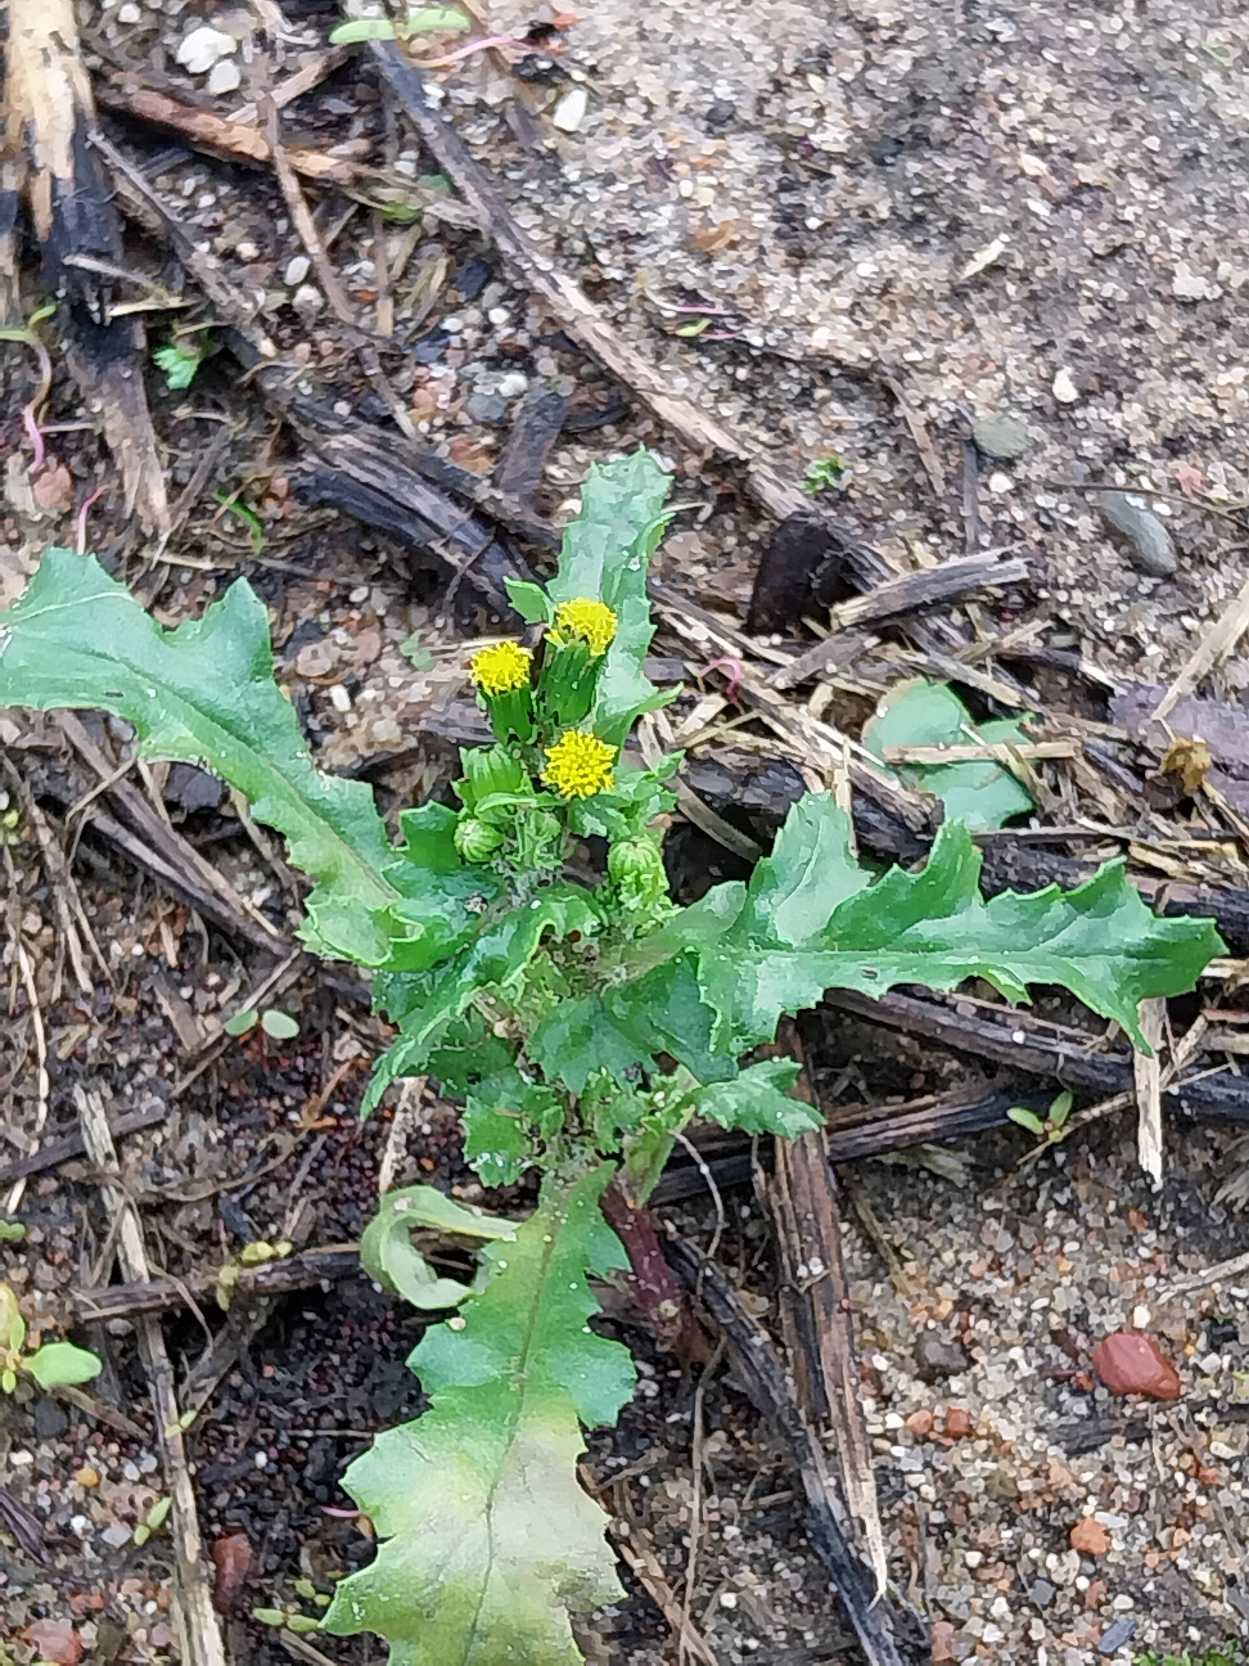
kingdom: Plantae
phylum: Tracheophyta
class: Magnoliopsida
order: Asterales
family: Asteraceae
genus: Senecio
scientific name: Senecio vulgaris
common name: Almindelig brandbæger
